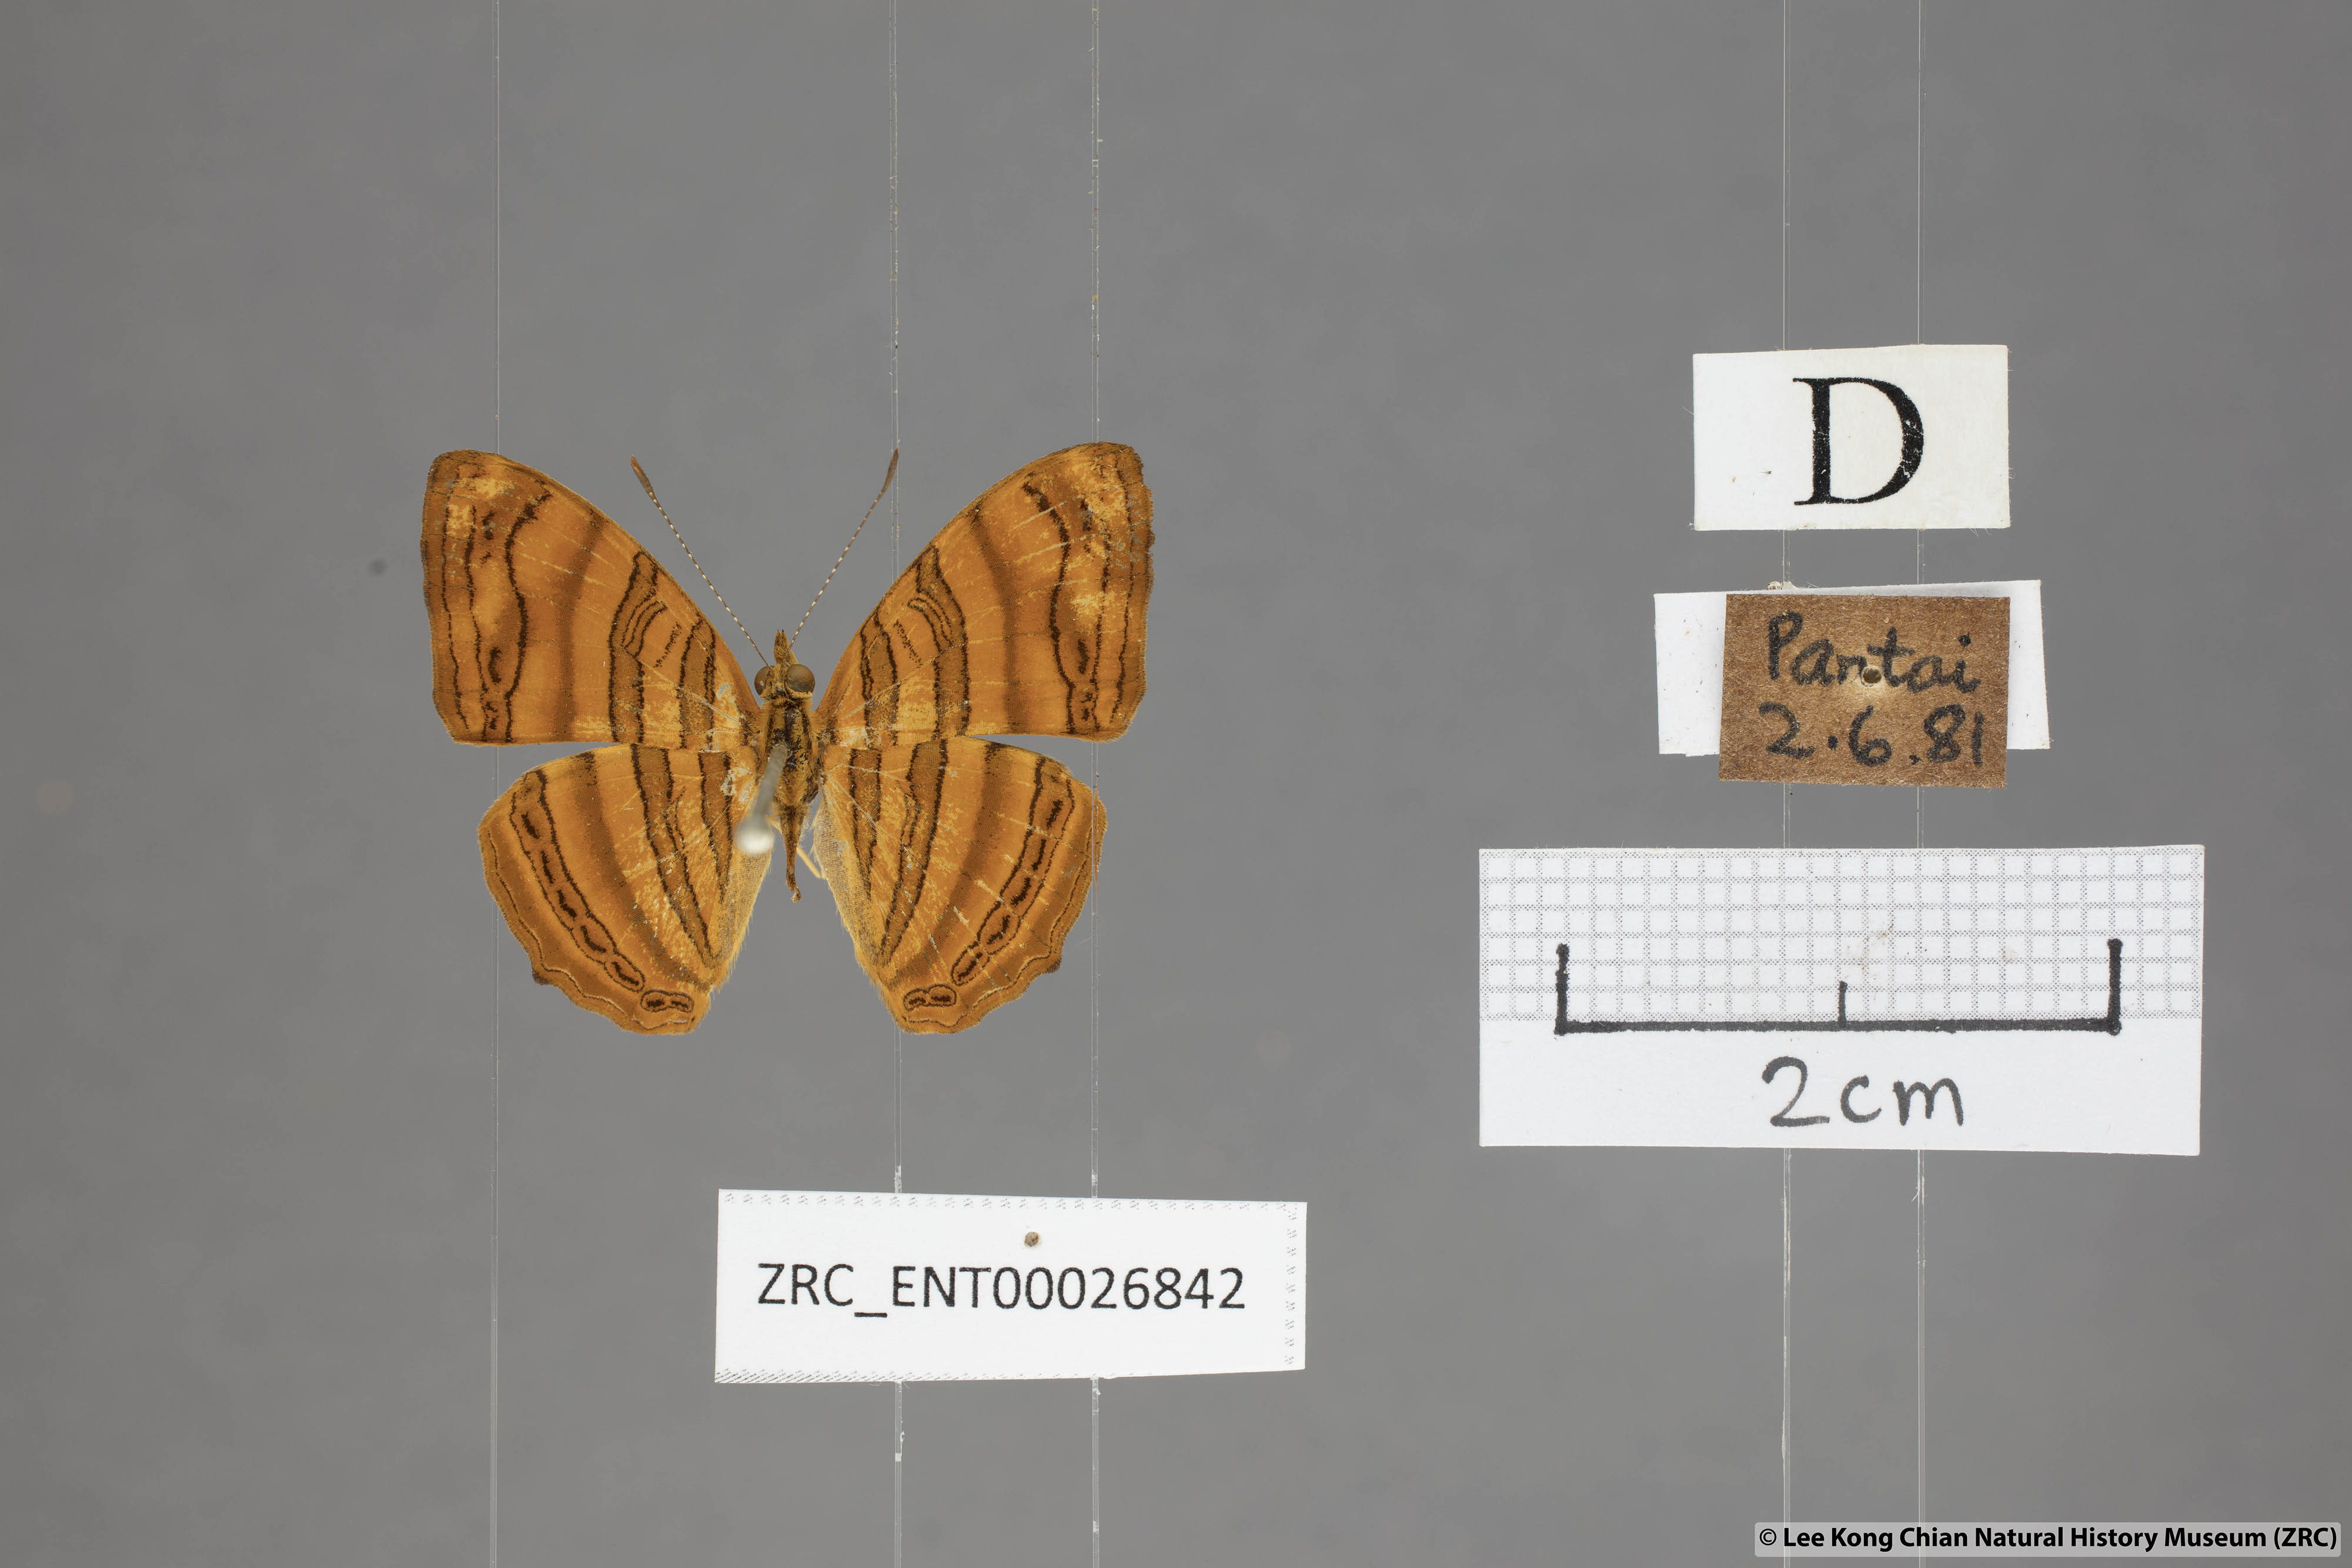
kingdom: Animalia
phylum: Arthropoda
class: Insecta
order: Lepidoptera
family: Nymphalidae
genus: Chersonesia
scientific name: Chersonesia intermedia
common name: Intermediate maplet
